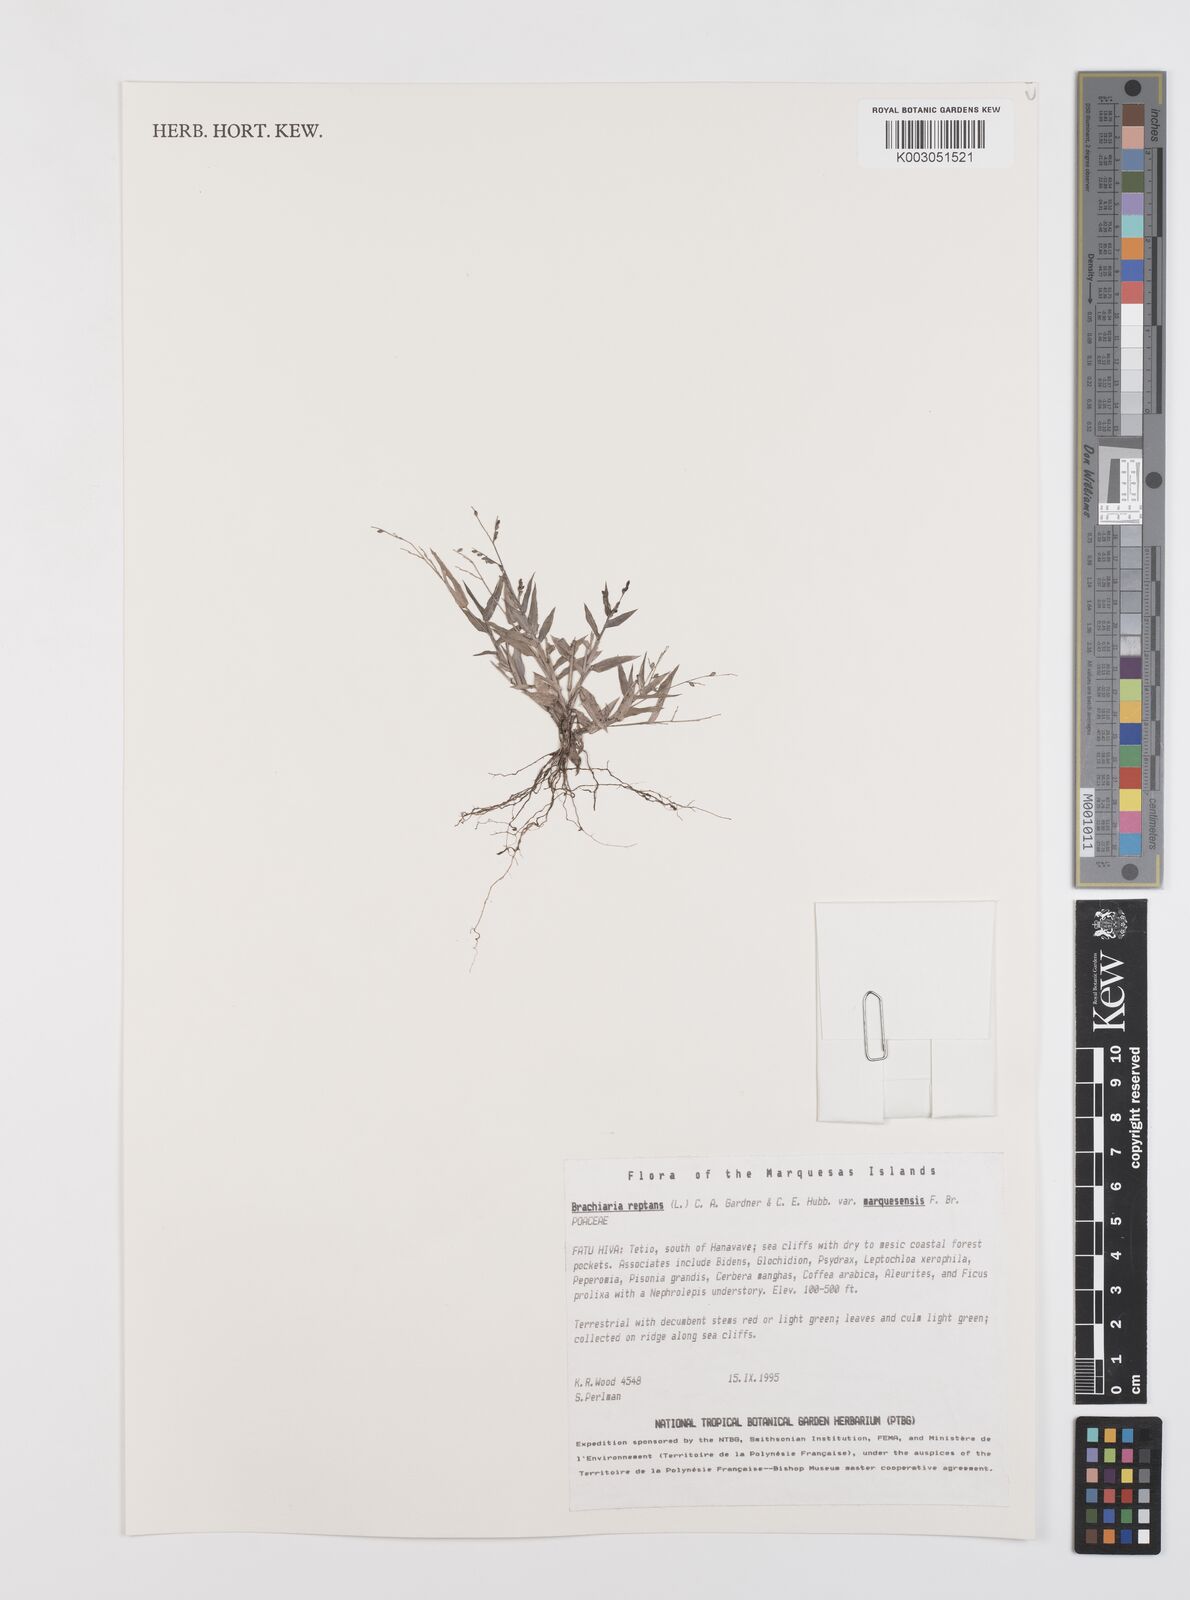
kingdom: Plantae
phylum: Tracheophyta
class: Liliopsida
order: Poales
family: Poaceae
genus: Urochloa
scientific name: Urochloa reptans
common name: Sprawling signalgrass
